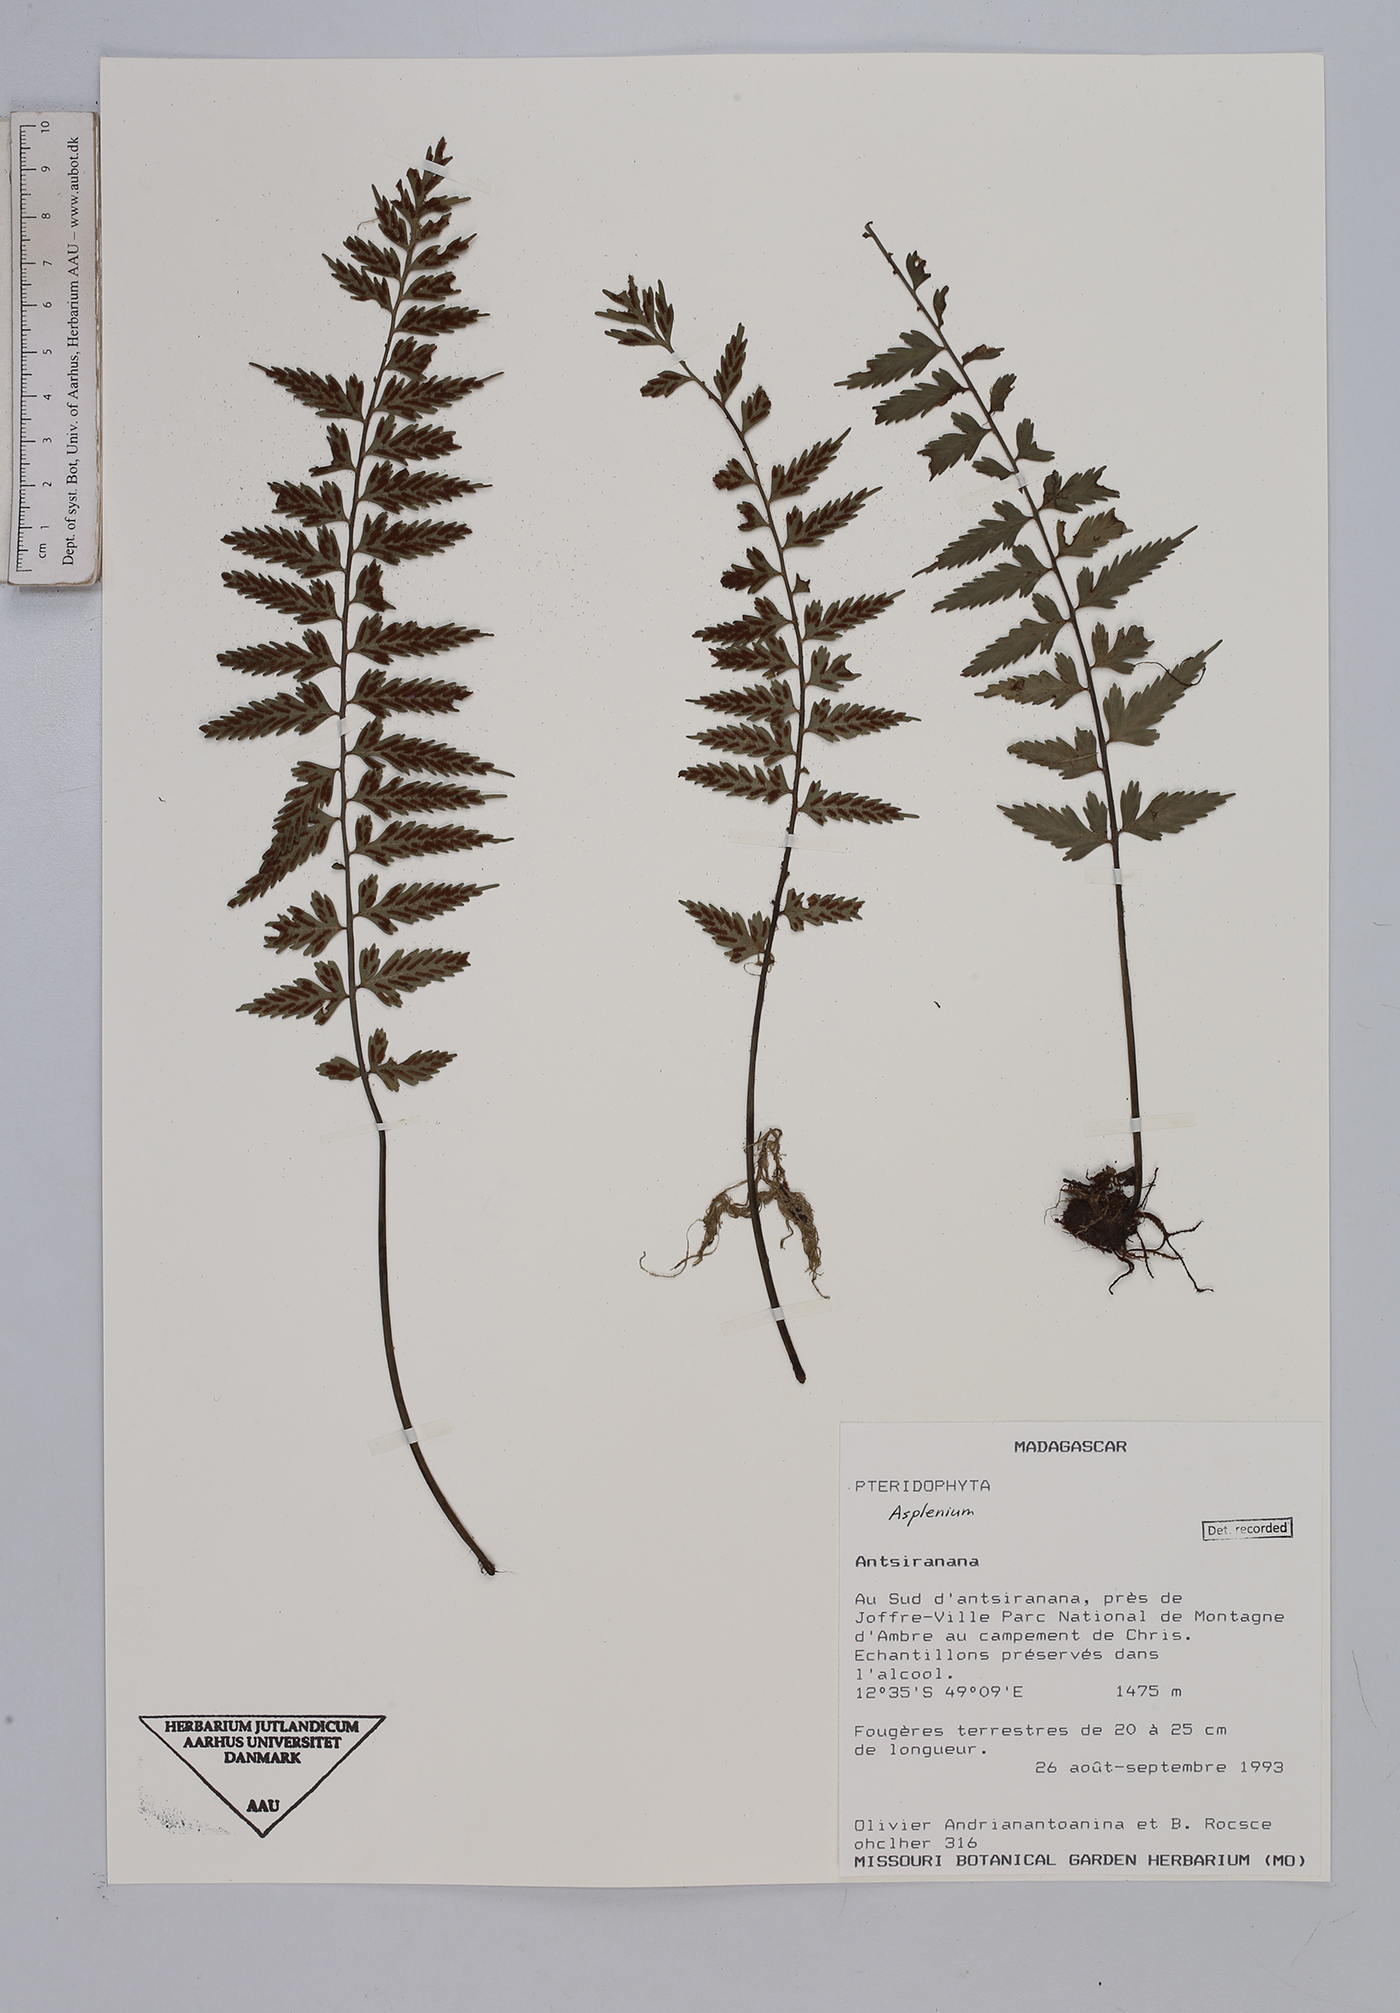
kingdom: Plantae
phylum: Tracheophyta
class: Polypodiopsida
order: Polypodiales
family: Aspleniaceae
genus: Asplenium
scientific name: Asplenium
